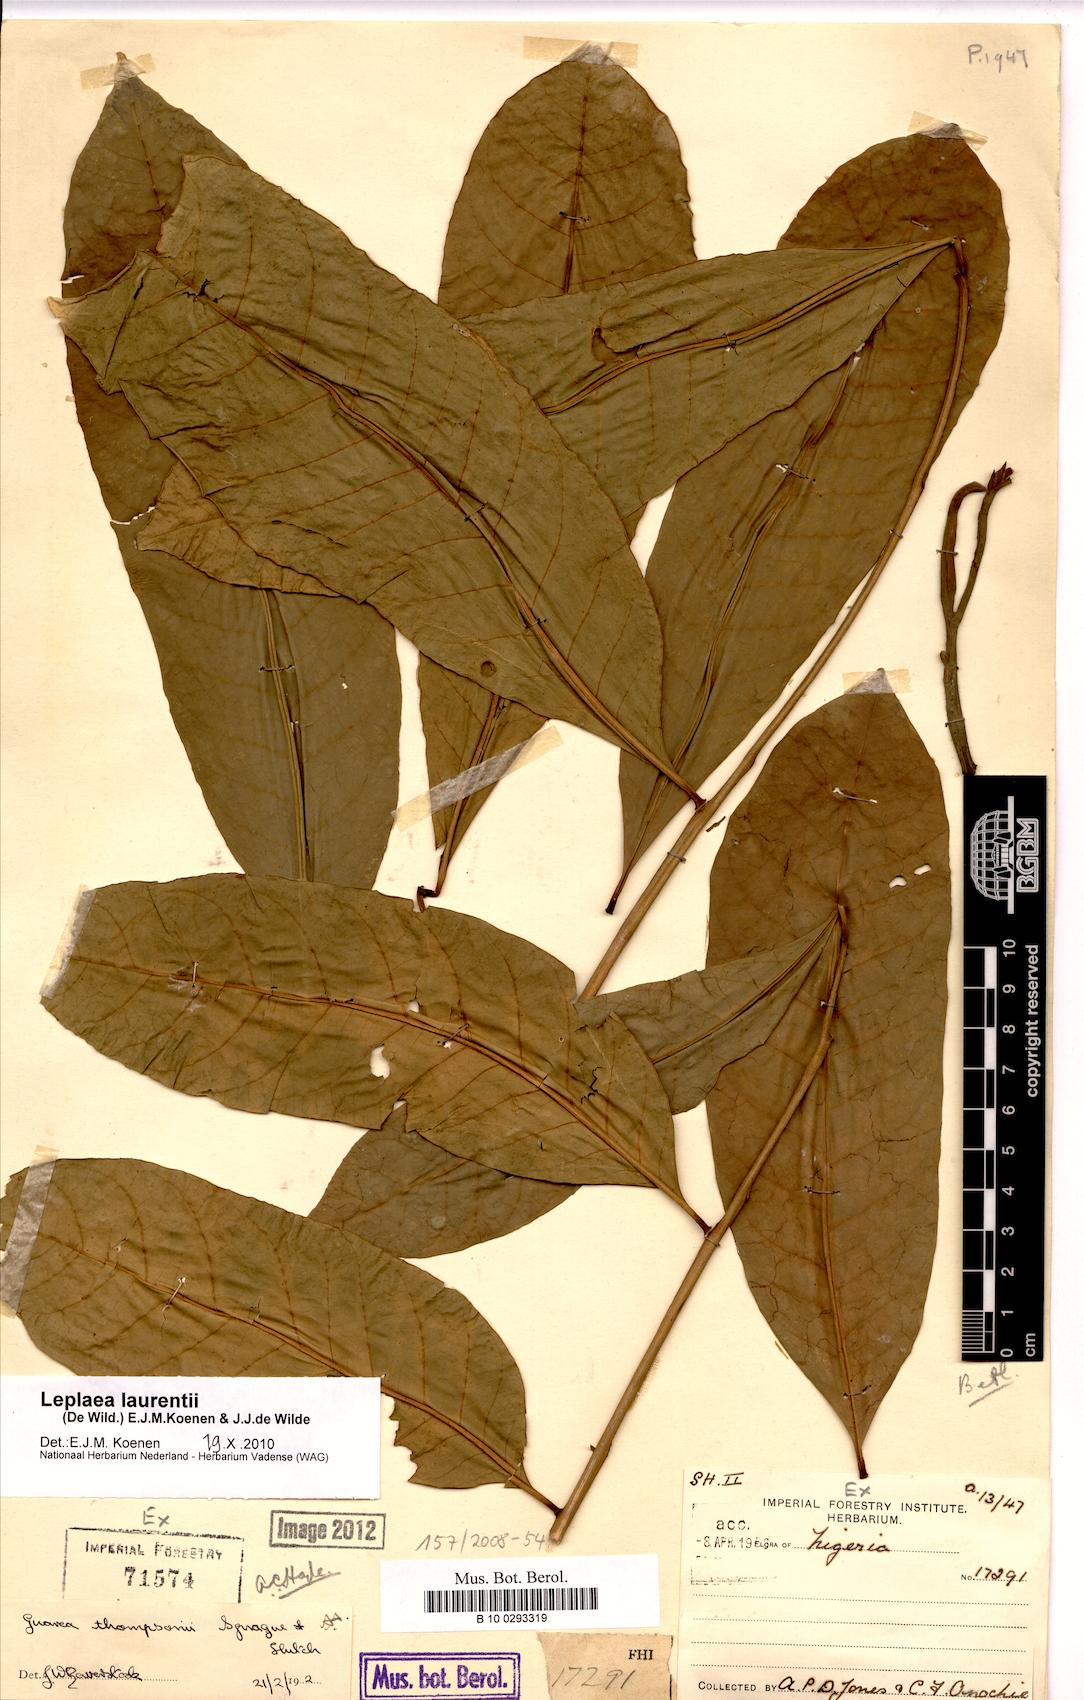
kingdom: Plantae
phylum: Tracheophyta
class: Magnoliopsida
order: Sapindales
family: Meliaceae
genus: Leplaea
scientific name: Leplaea laurentii
